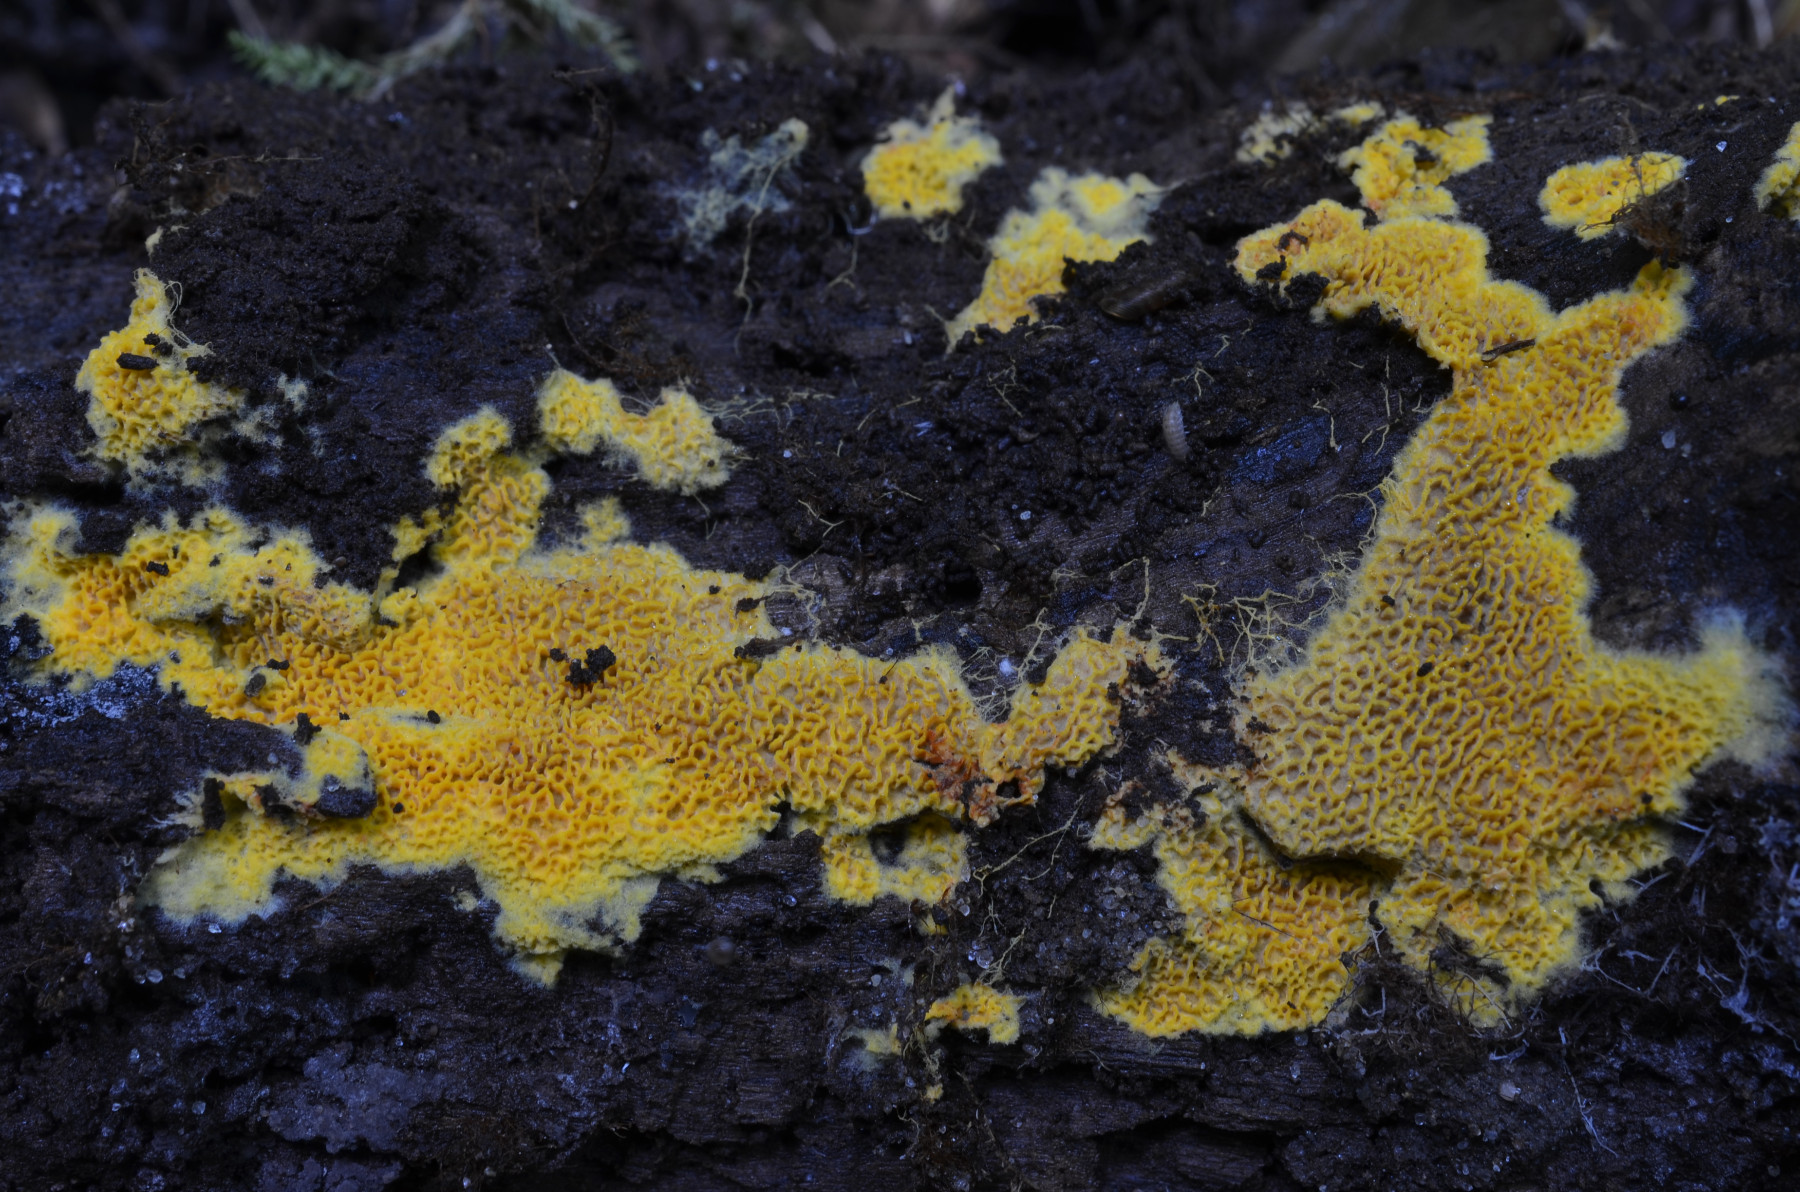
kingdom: Fungi
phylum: Basidiomycota
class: Agaricomycetes
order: Agaricales
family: Stephanosporaceae
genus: Lindtneria
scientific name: Lindtneria trachyspora
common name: labyrint-citrushinde
